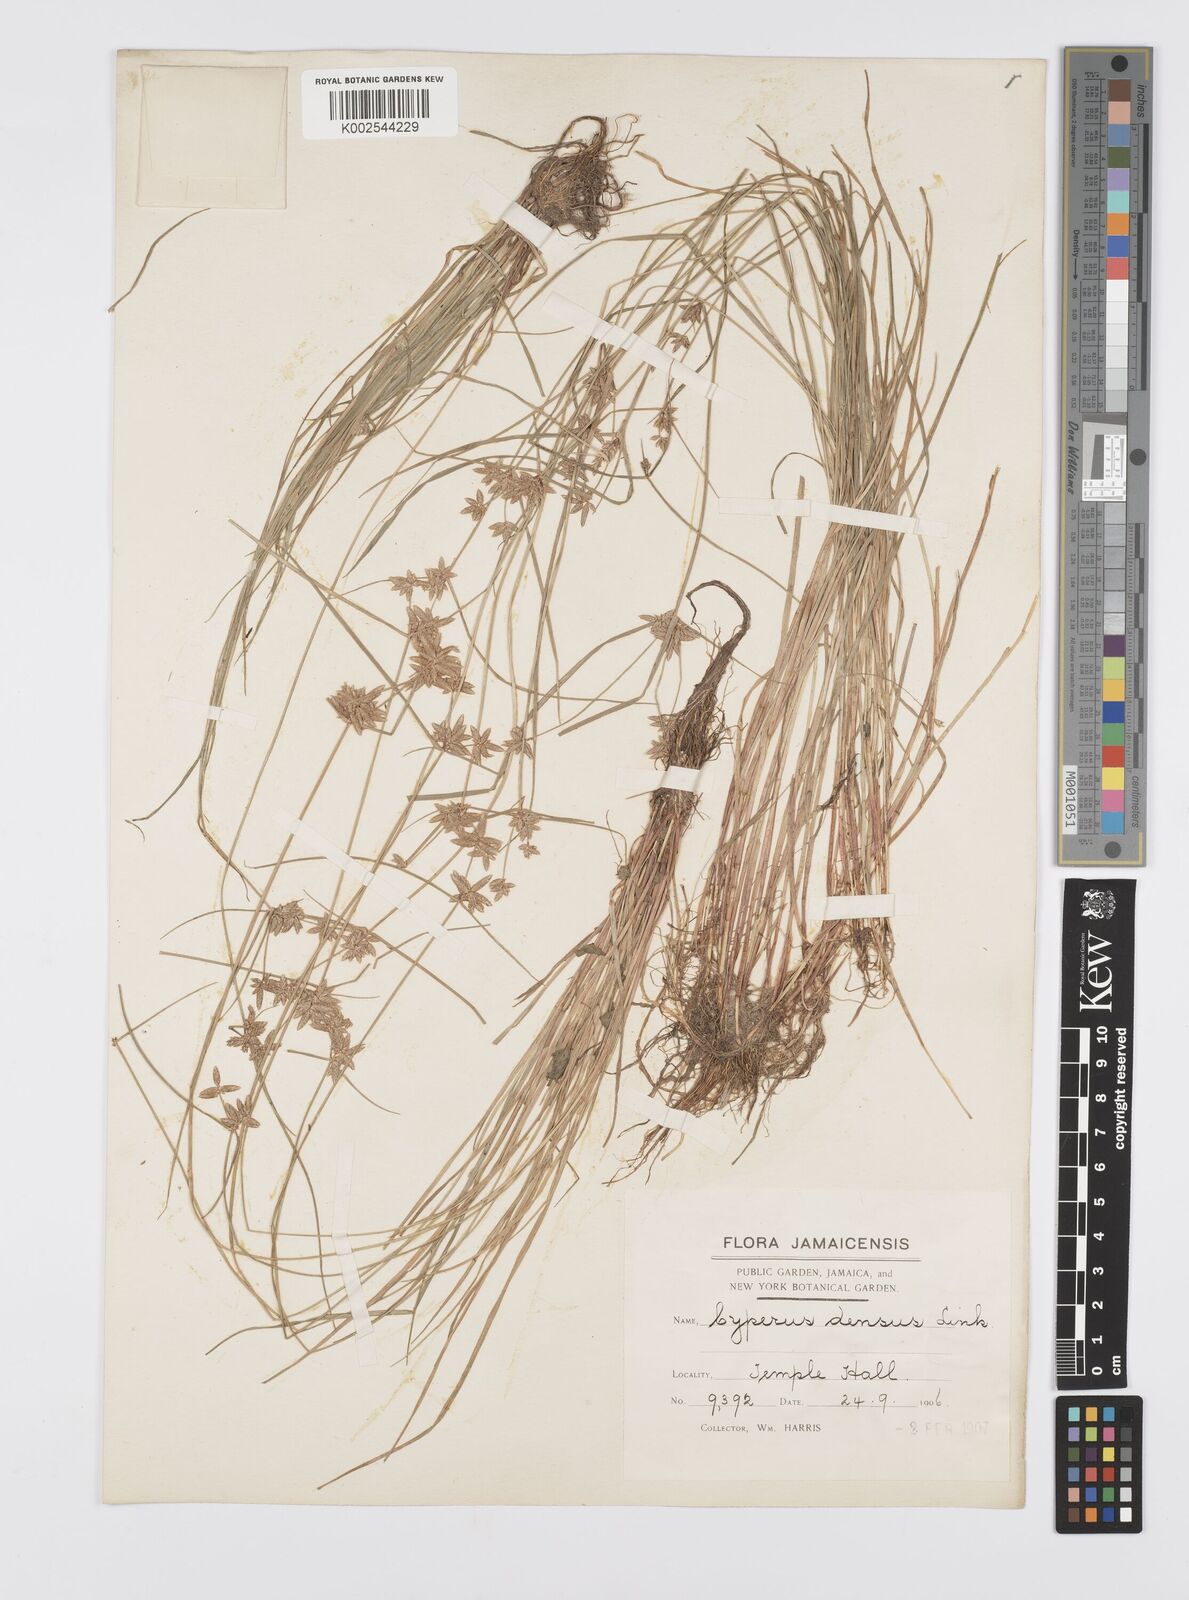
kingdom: Plantae
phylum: Tracheophyta
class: Liliopsida
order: Poales
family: Cyperaceae
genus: Cyperus
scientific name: Cyperus
